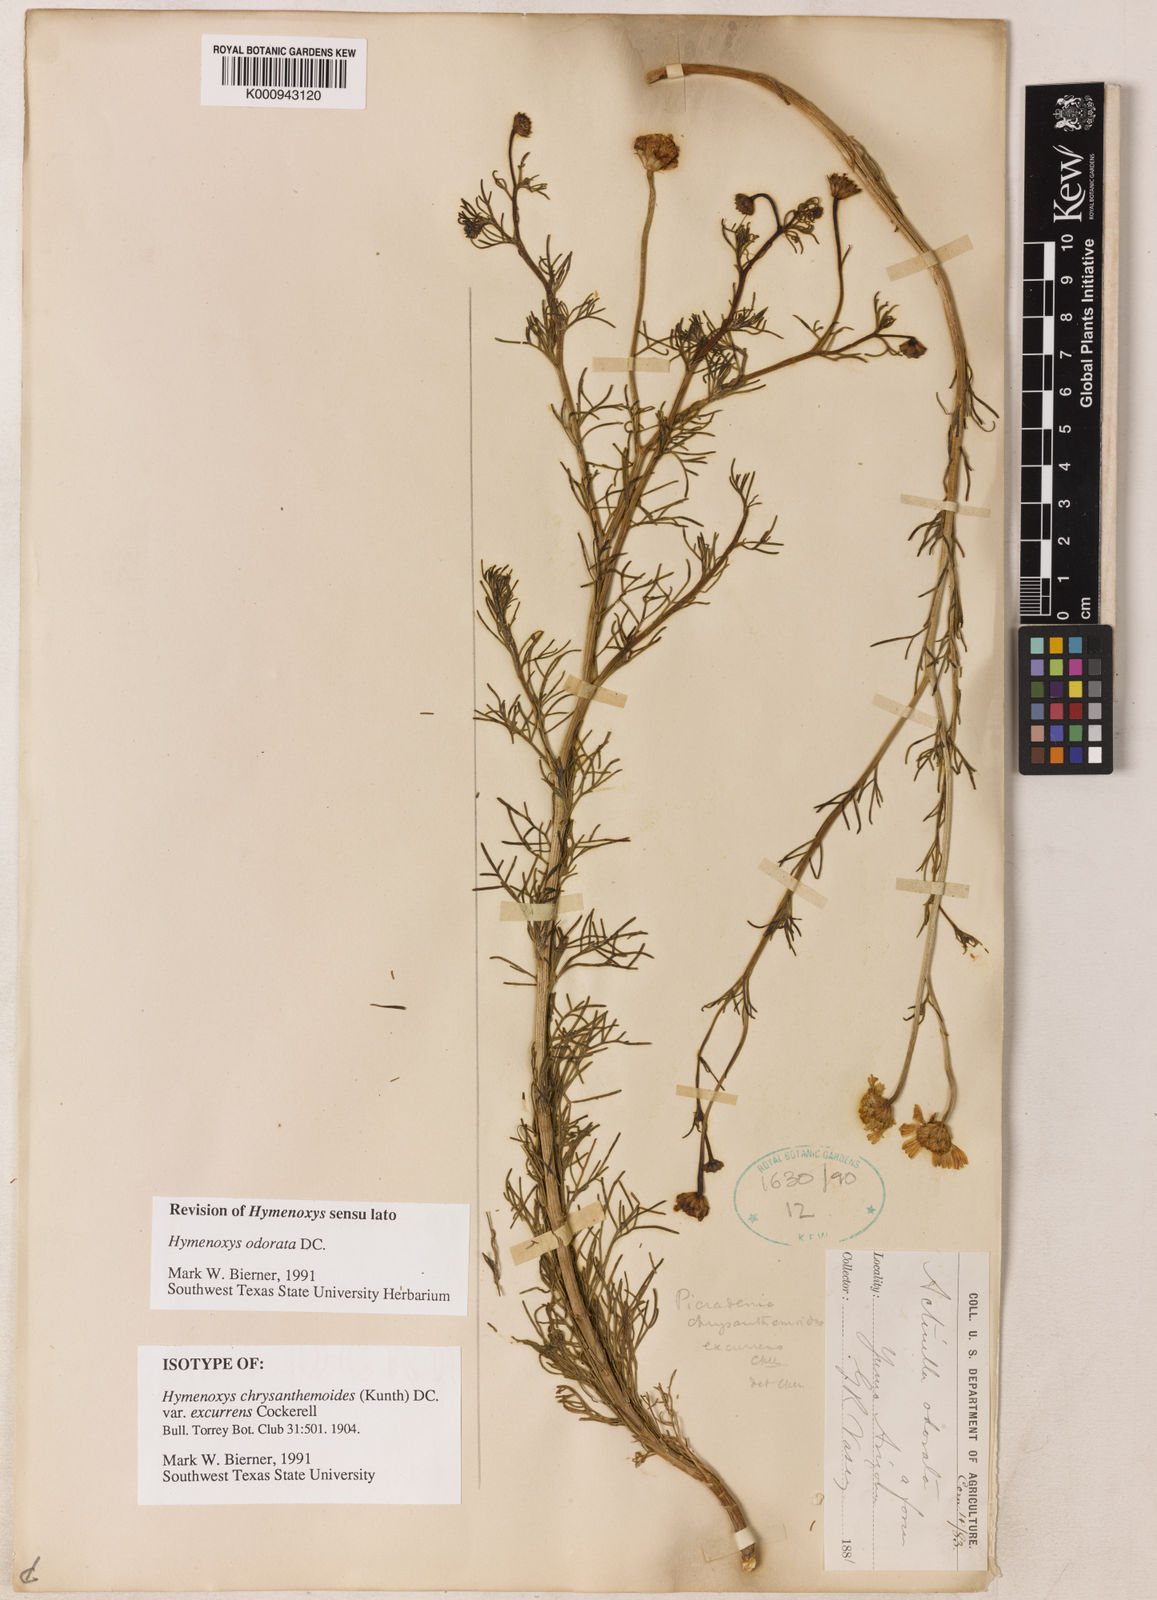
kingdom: Plantae
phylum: Tracheophyta
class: Magnoliopsida
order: Asterales
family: Asteraceae
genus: Hymenoxys
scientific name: Hymenoxys odorata
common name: Bitter rubberweed
